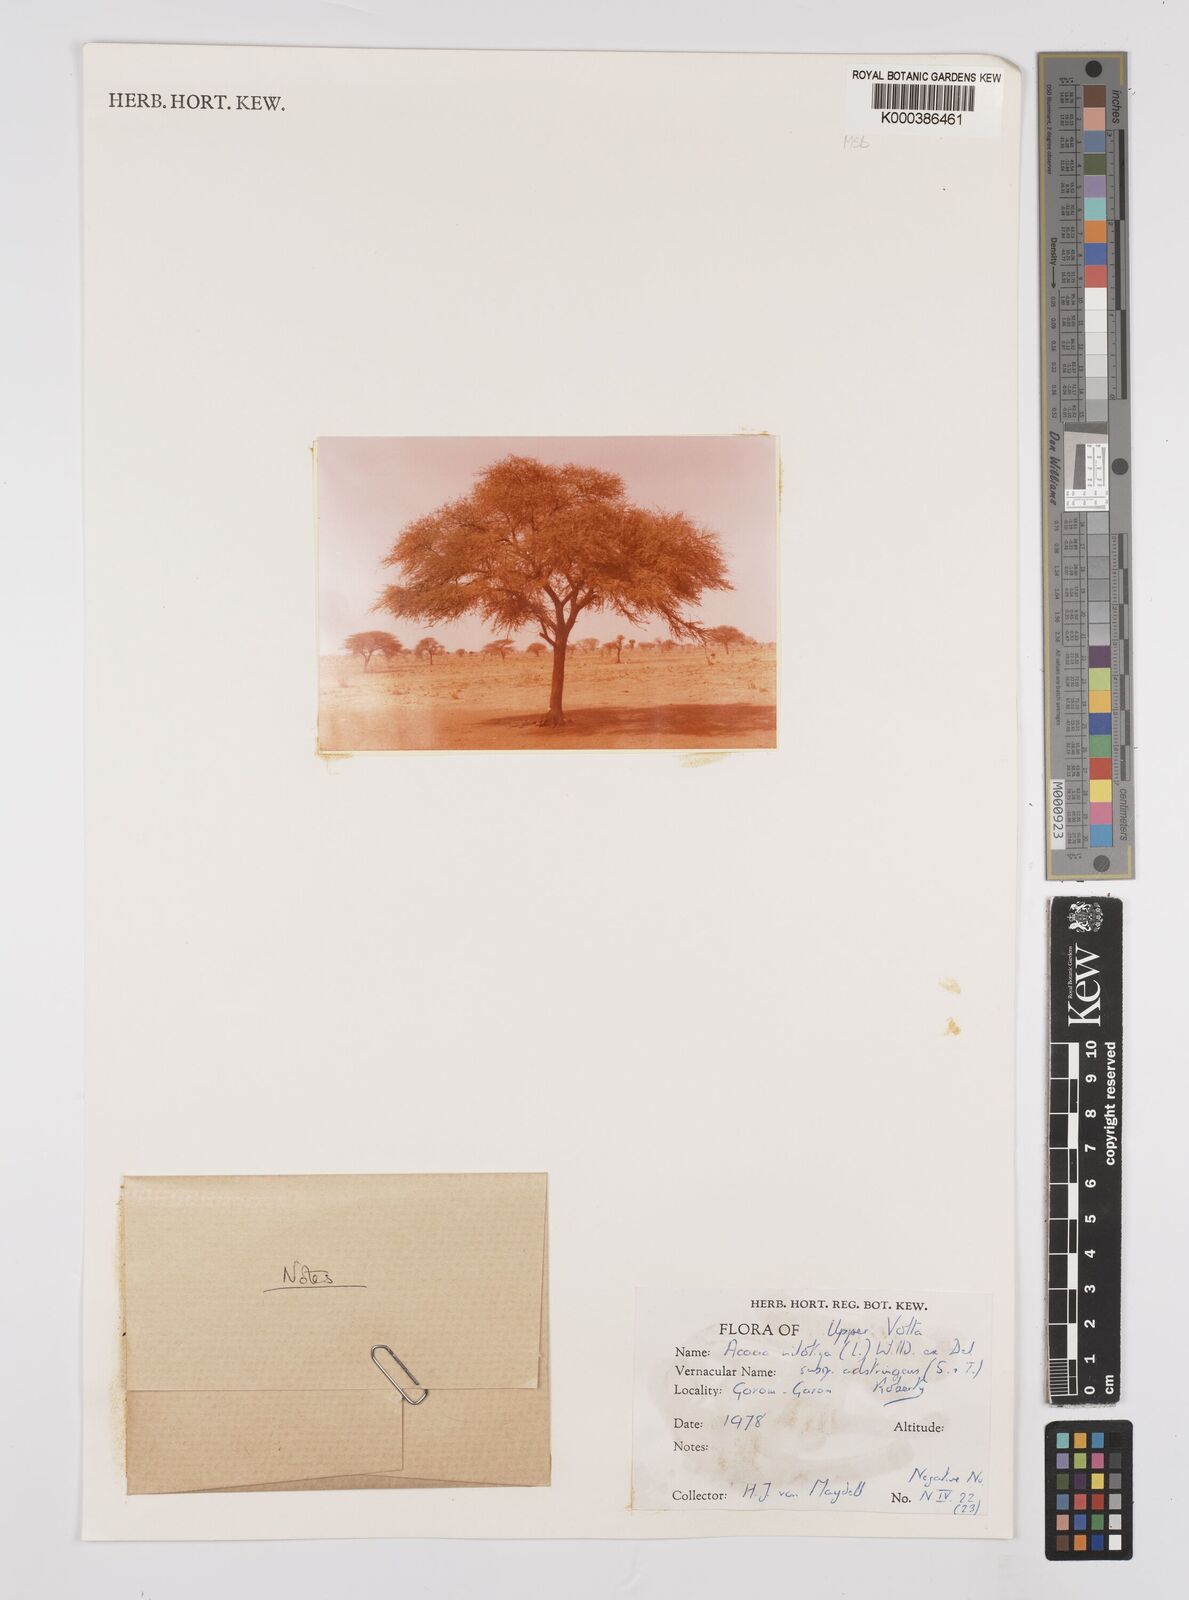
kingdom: Plantae
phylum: Tracheophyta
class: Magnoliopsida
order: Fabales
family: Fabaceae
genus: Vachellia
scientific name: Vachellia nilotica
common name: Arabic gumtree
